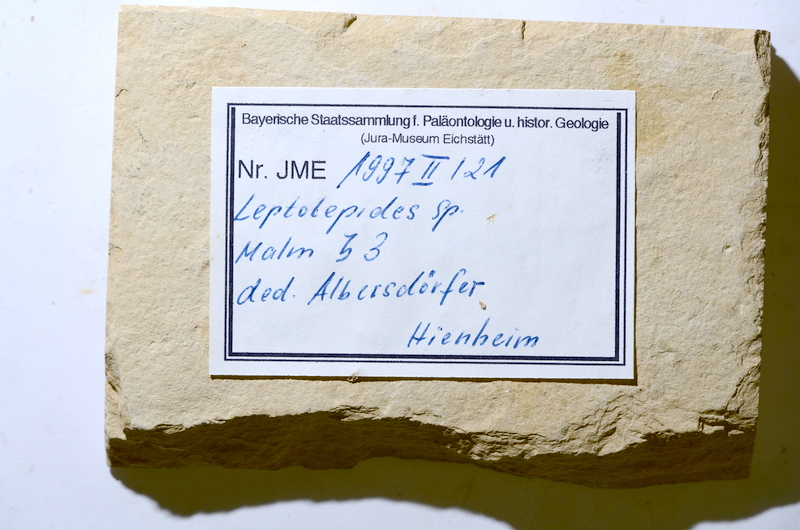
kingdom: Animalia
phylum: Chordata
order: Salmoniformes
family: Orthogonikleithridae
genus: Leptolepides
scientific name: Leptolepides
